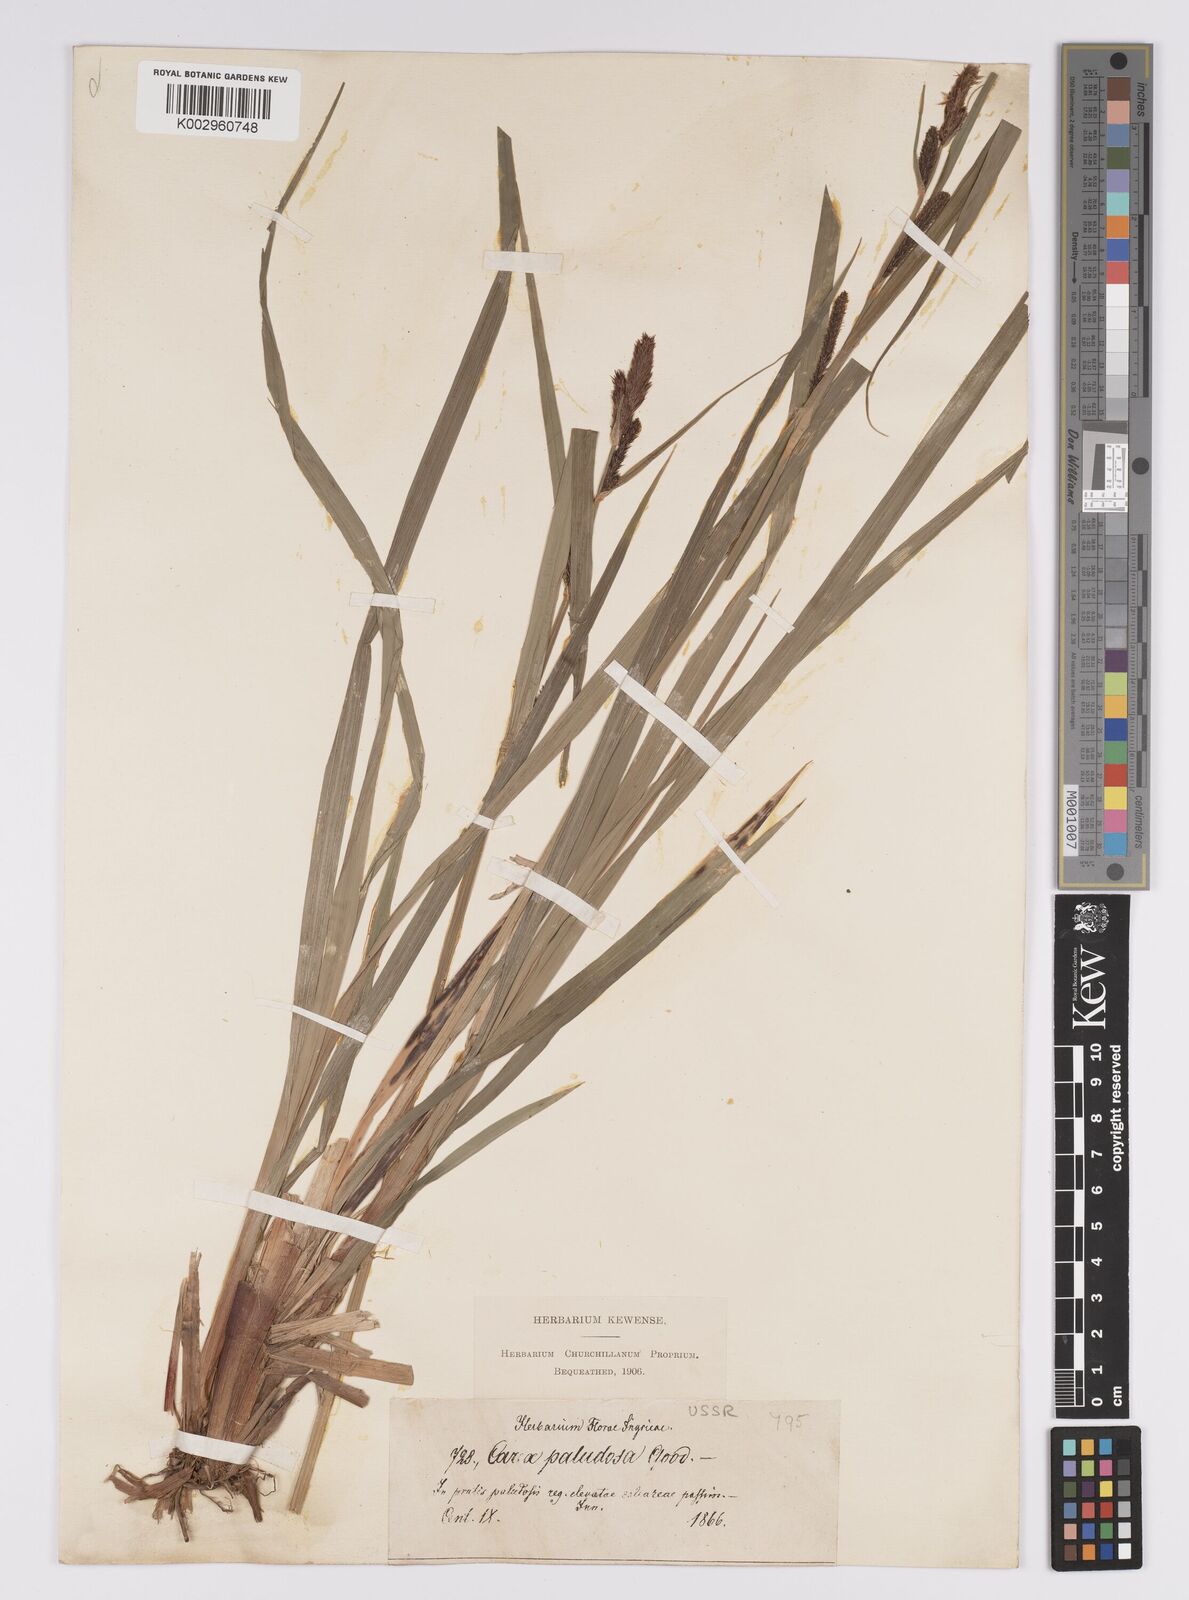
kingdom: Plantae
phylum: Tracheophyta
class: Liliopsida
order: Poales
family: Cyperaceae
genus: Carex
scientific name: Carex acutiformis
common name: Lesser pond-sedge
